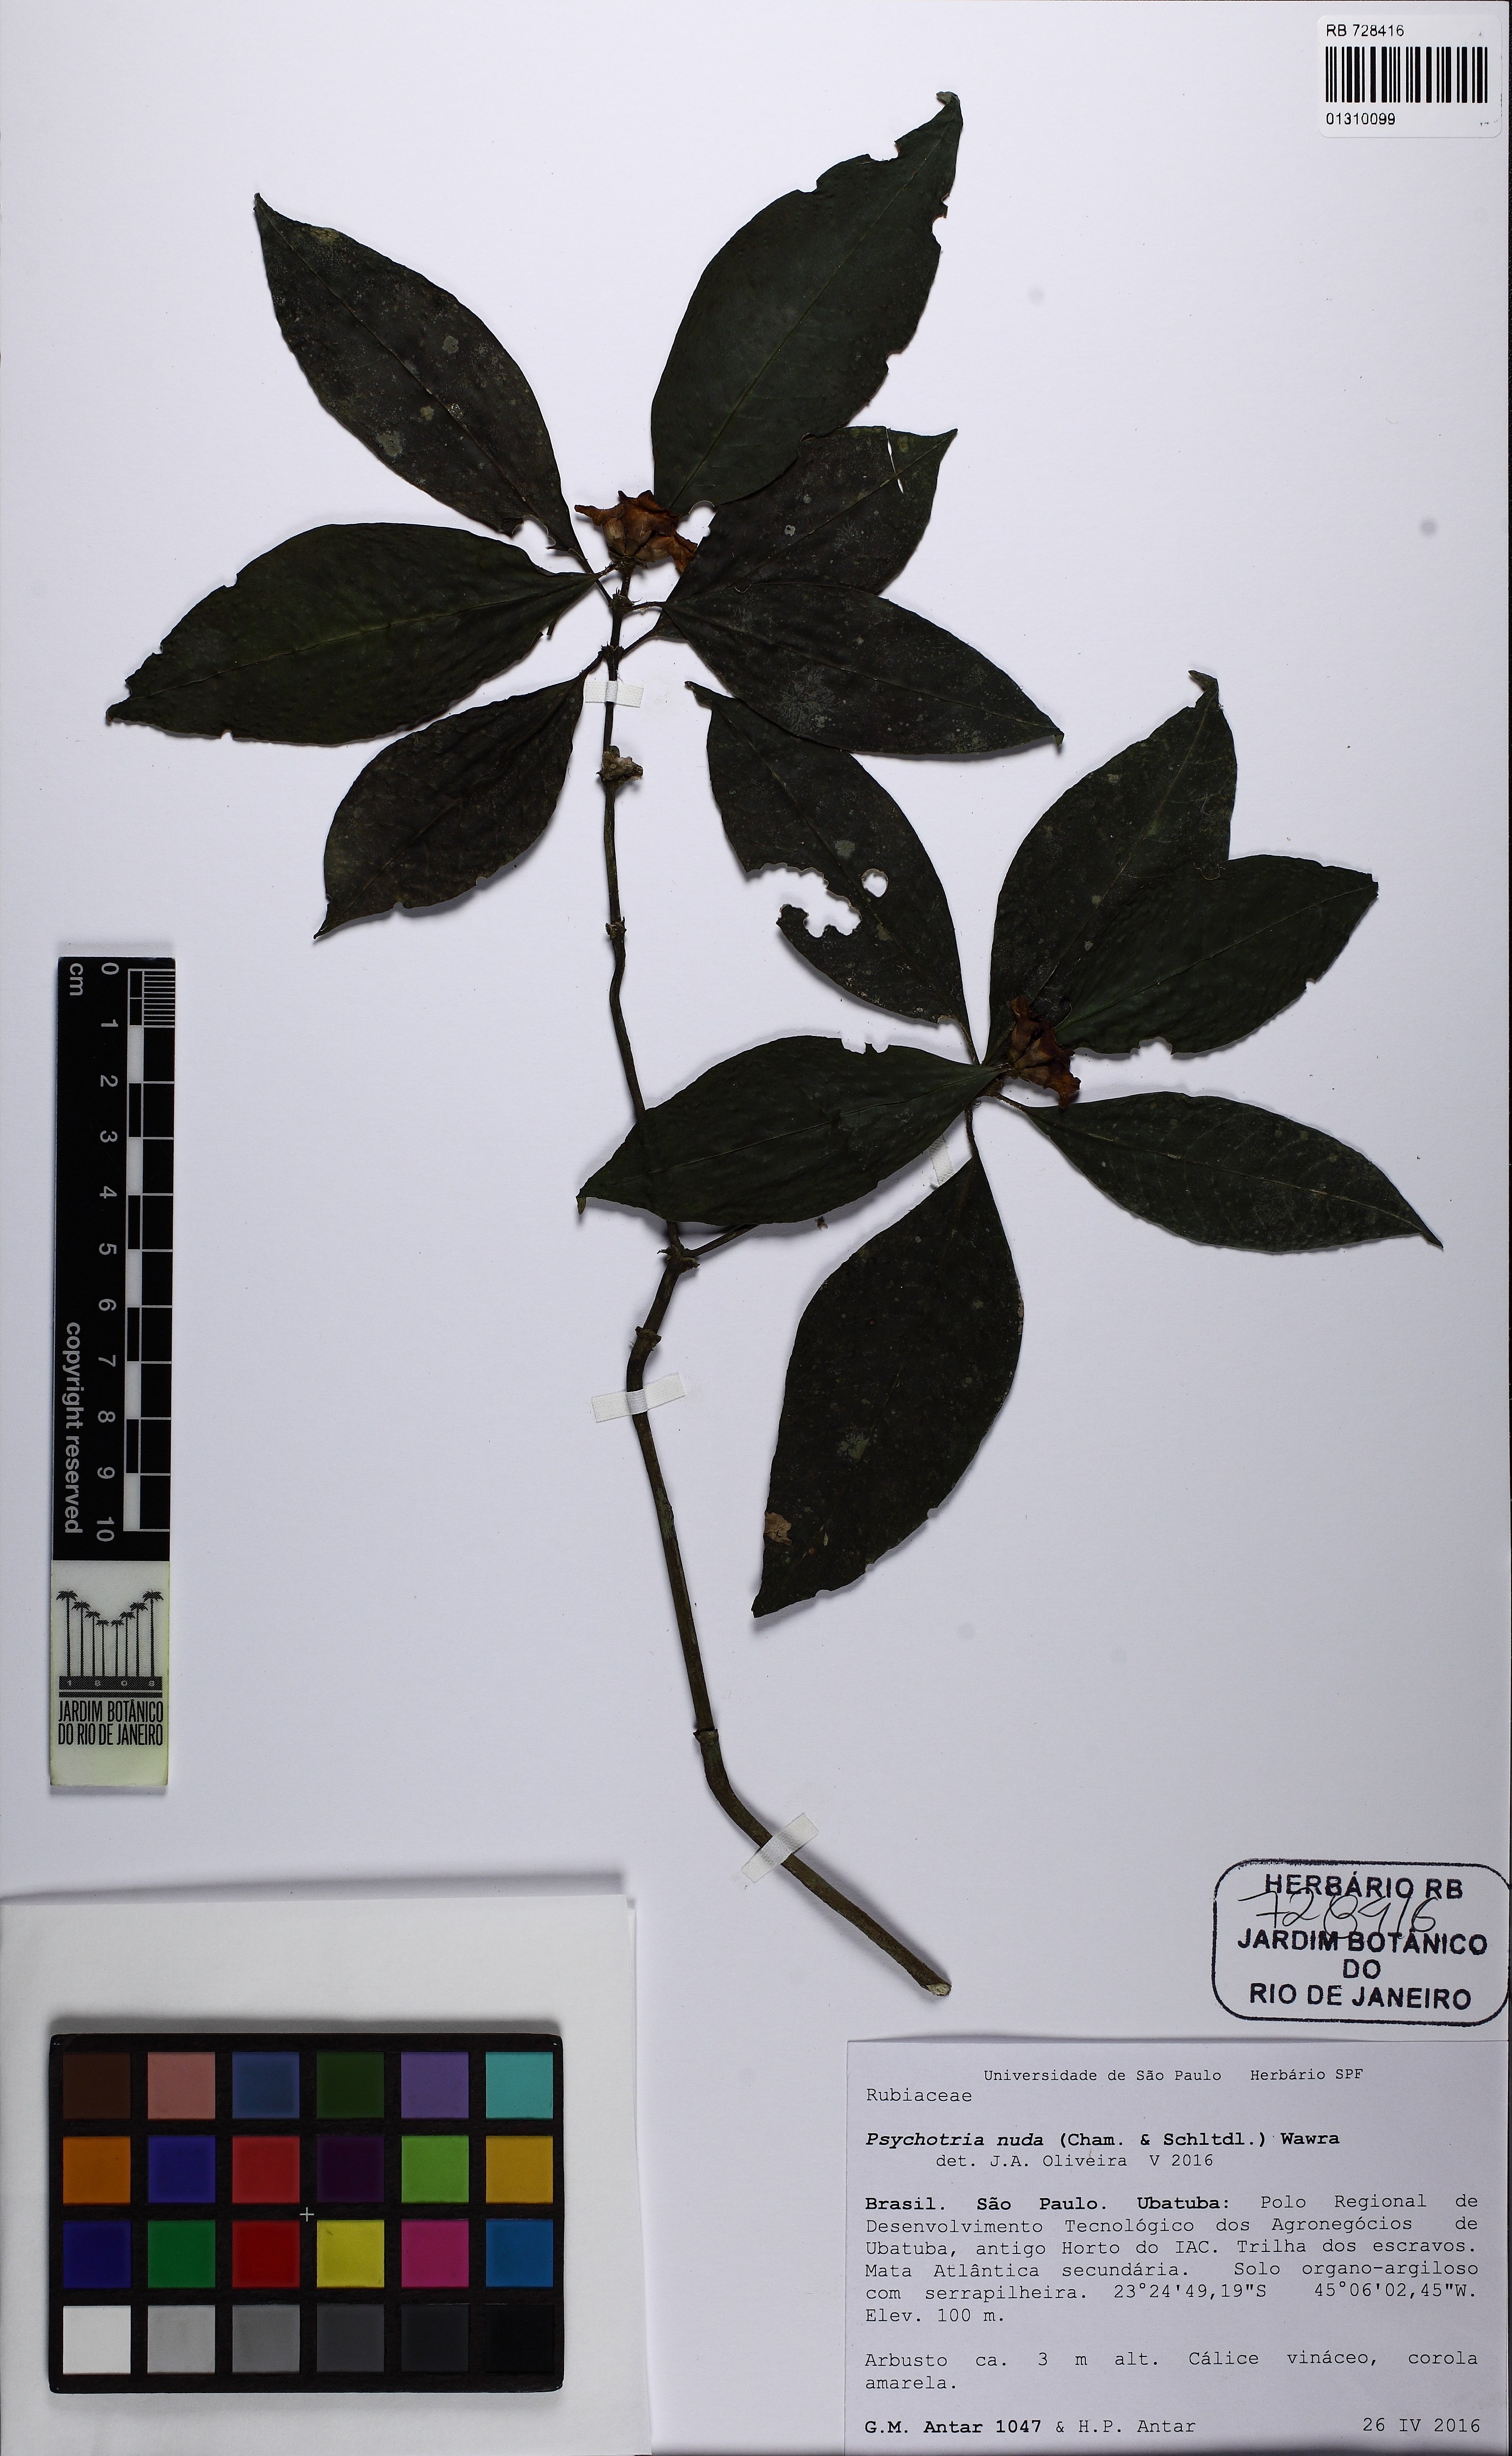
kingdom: Plantae
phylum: Tracheophyta
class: Magnoliopsida
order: Gentianales
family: Rubiaceae
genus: Psychotria
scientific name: Psychotria nuda
